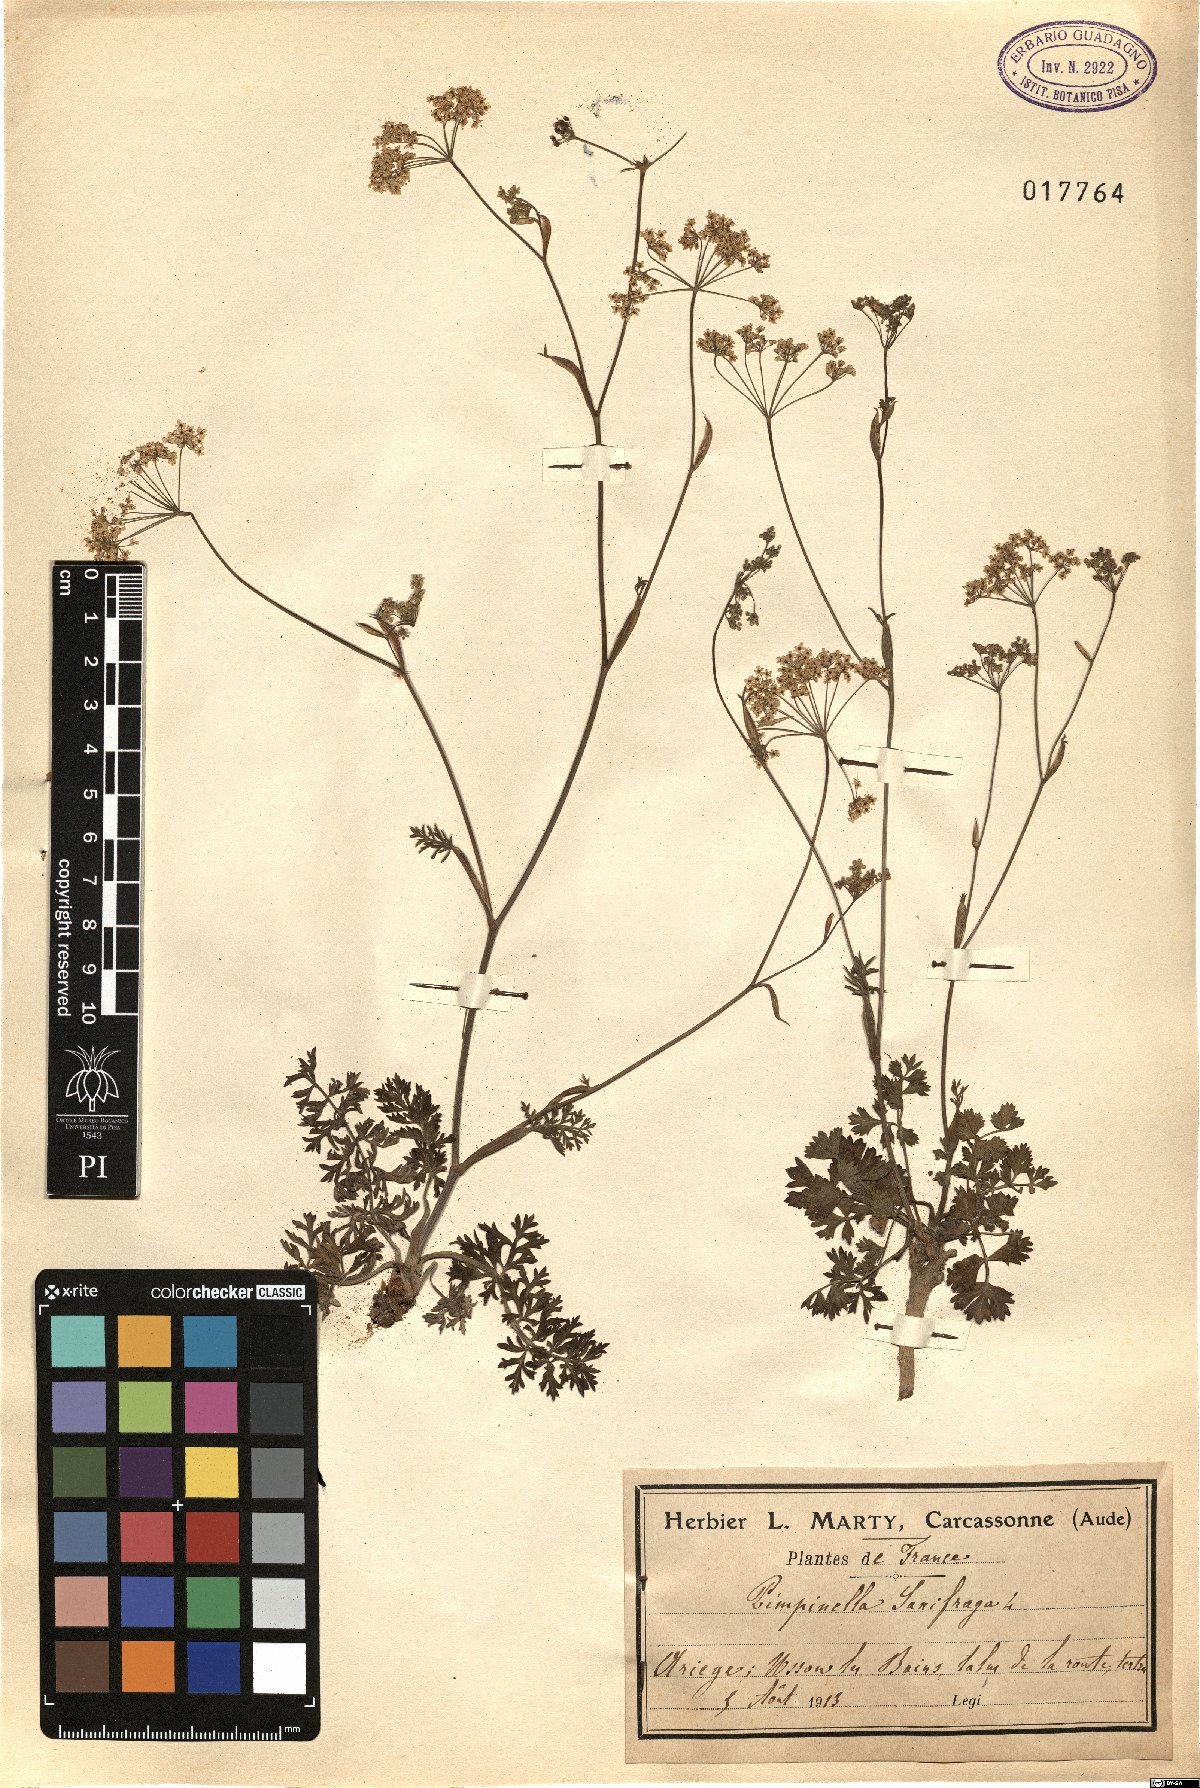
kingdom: Plantae
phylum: Tracheophyta
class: Magnoliopsida
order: Apiales
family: Apiaceae
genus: Pimpinella
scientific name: Pimpinella saxifraga
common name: Burnet-saxifrage
